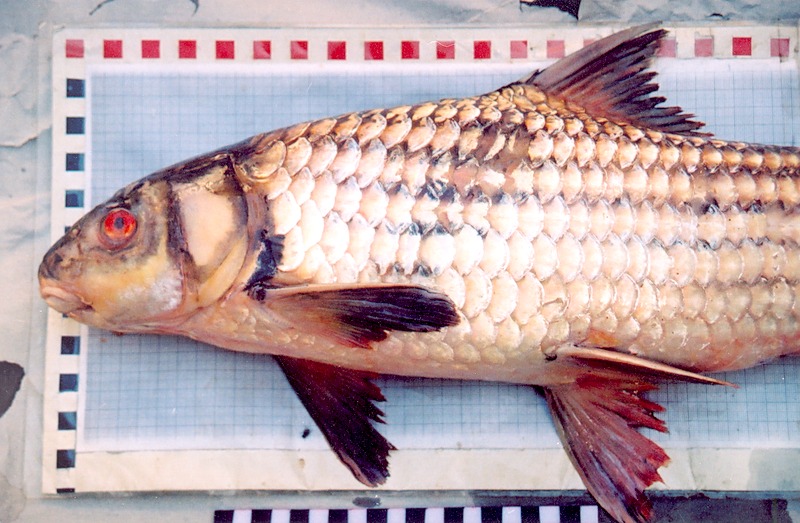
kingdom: Animalia
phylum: Chordata
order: Cypriniformes
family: Cyprinidae
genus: Probarbus
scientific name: Probarbus jullieni
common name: Jullien's golden carp
